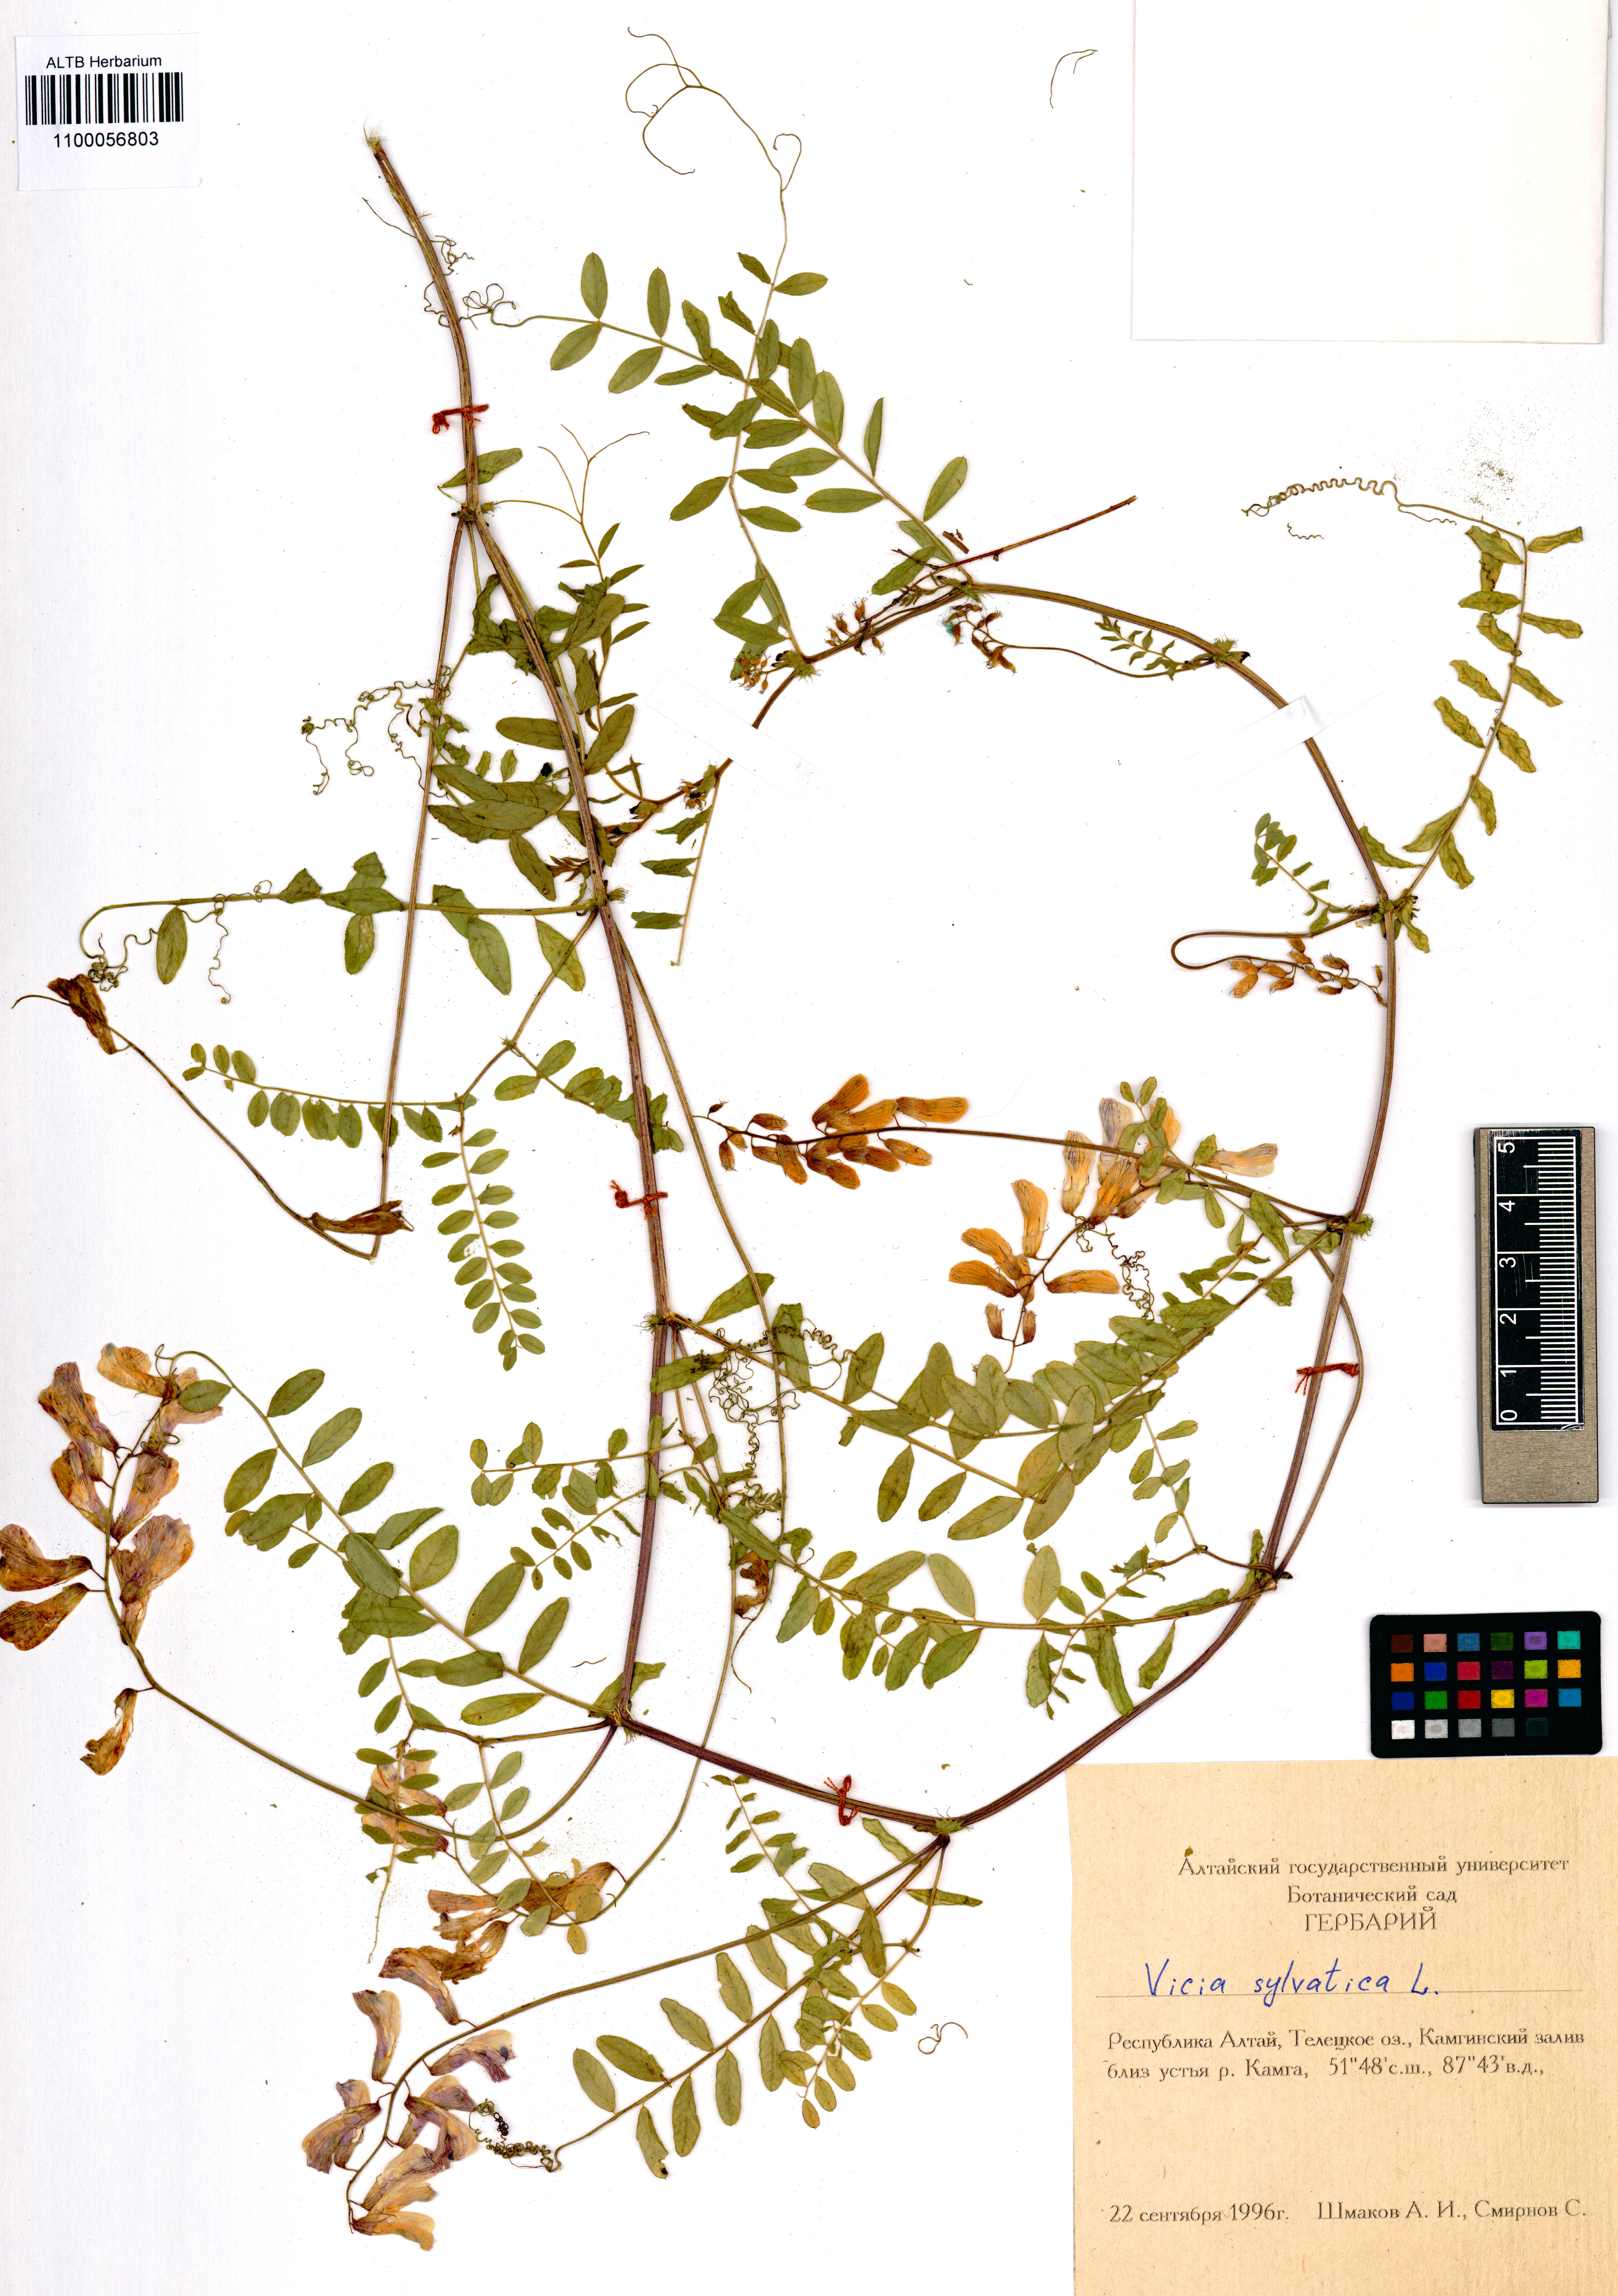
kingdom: Plantae
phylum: Tracheophyta
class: Magnoliopsida
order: Fabales
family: Fabaceae
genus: Vicia
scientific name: Vicia sylvatica
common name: Wood vetch
